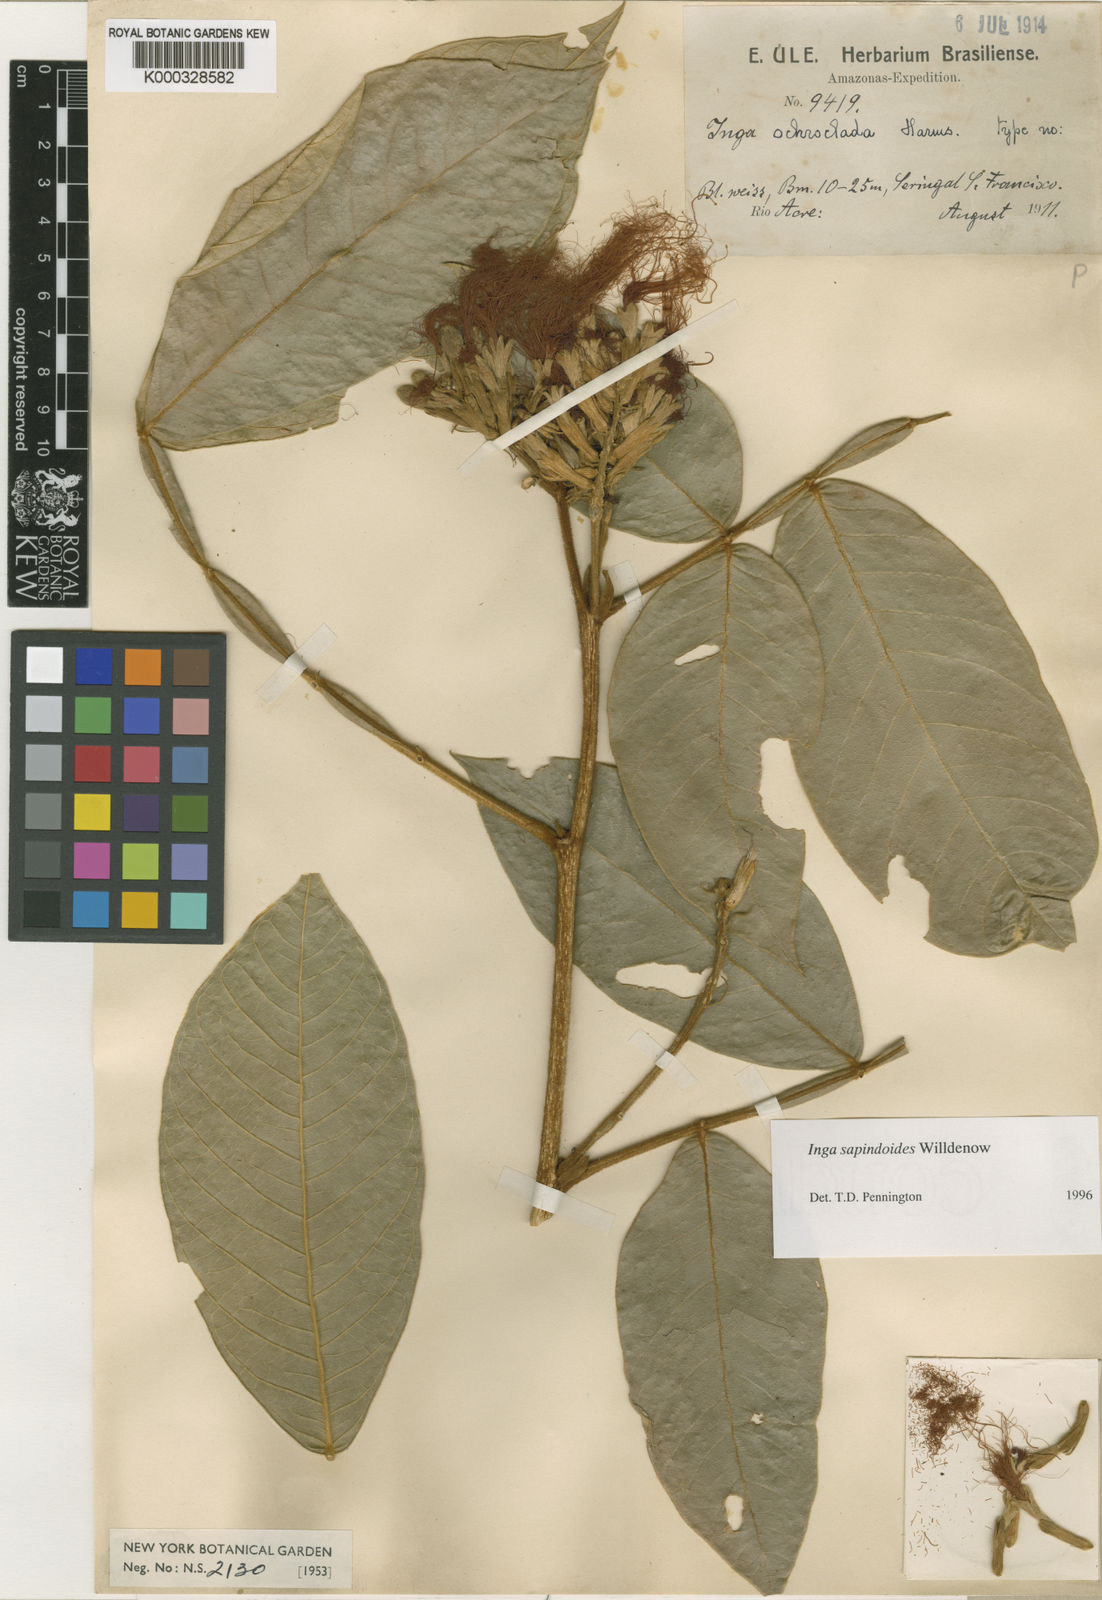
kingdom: Plantae
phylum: Tracheophyta
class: Magnoliopsida
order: Fabales
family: Fabaceae
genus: Inga
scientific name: Inga sapindoides
